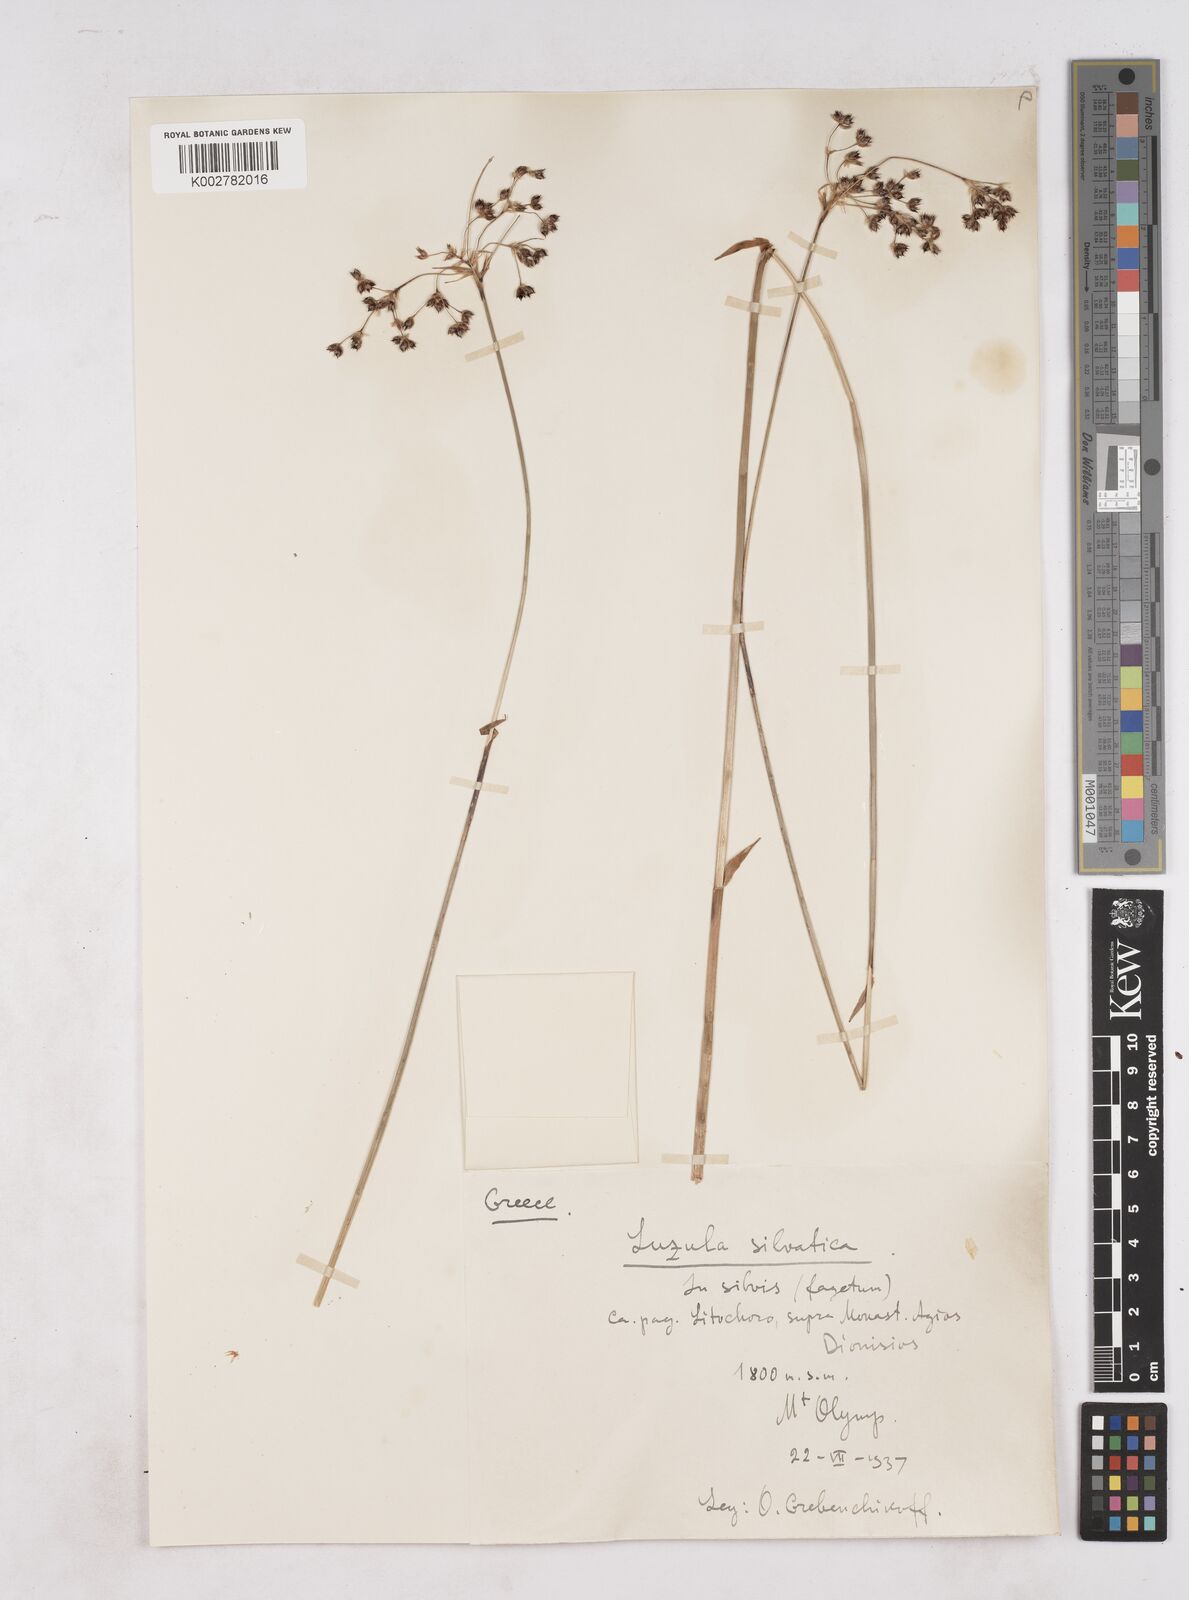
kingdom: Plantae
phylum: Tracheophyta
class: Liliopsida
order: Poales
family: Juncaceae
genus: Luzula
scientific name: Luzula sylvatica
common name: Great wood-rush
